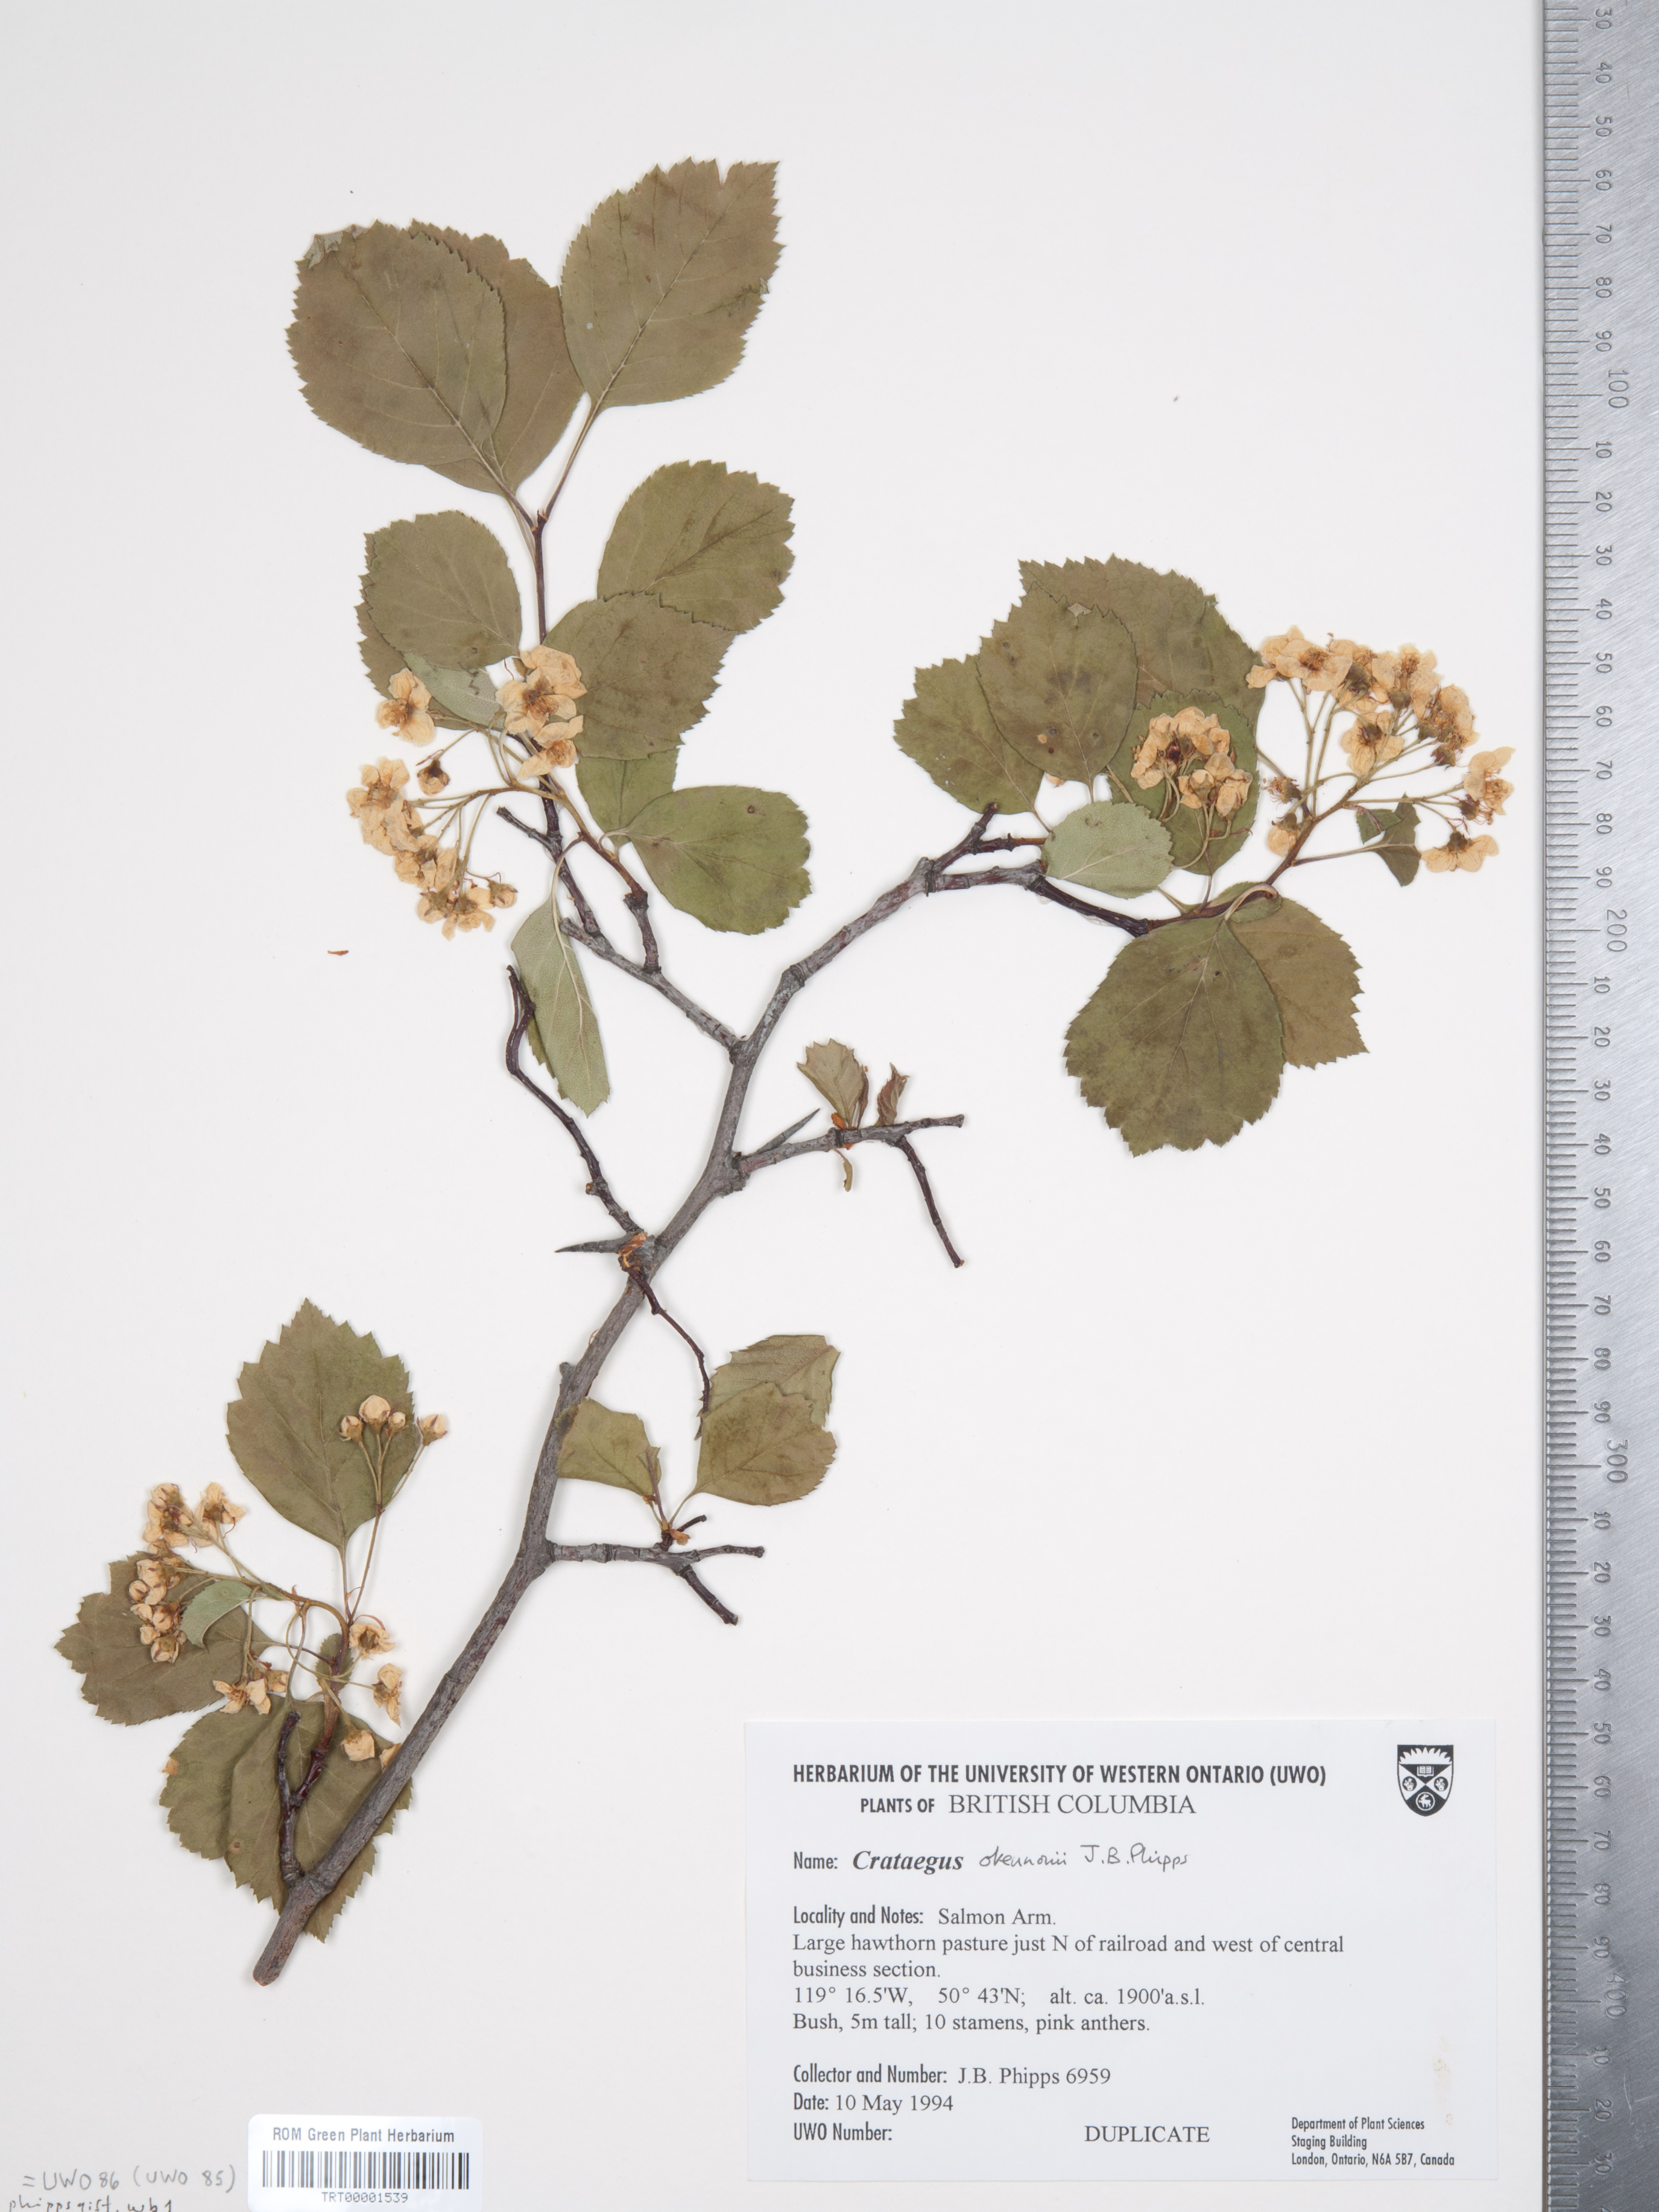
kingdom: Plantae
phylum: Tracheophyta
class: Magnoliopsida
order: Rosales
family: Rosaceae
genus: Crataegus
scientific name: Crataegus okennonii
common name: O'kennon's hawthorn
